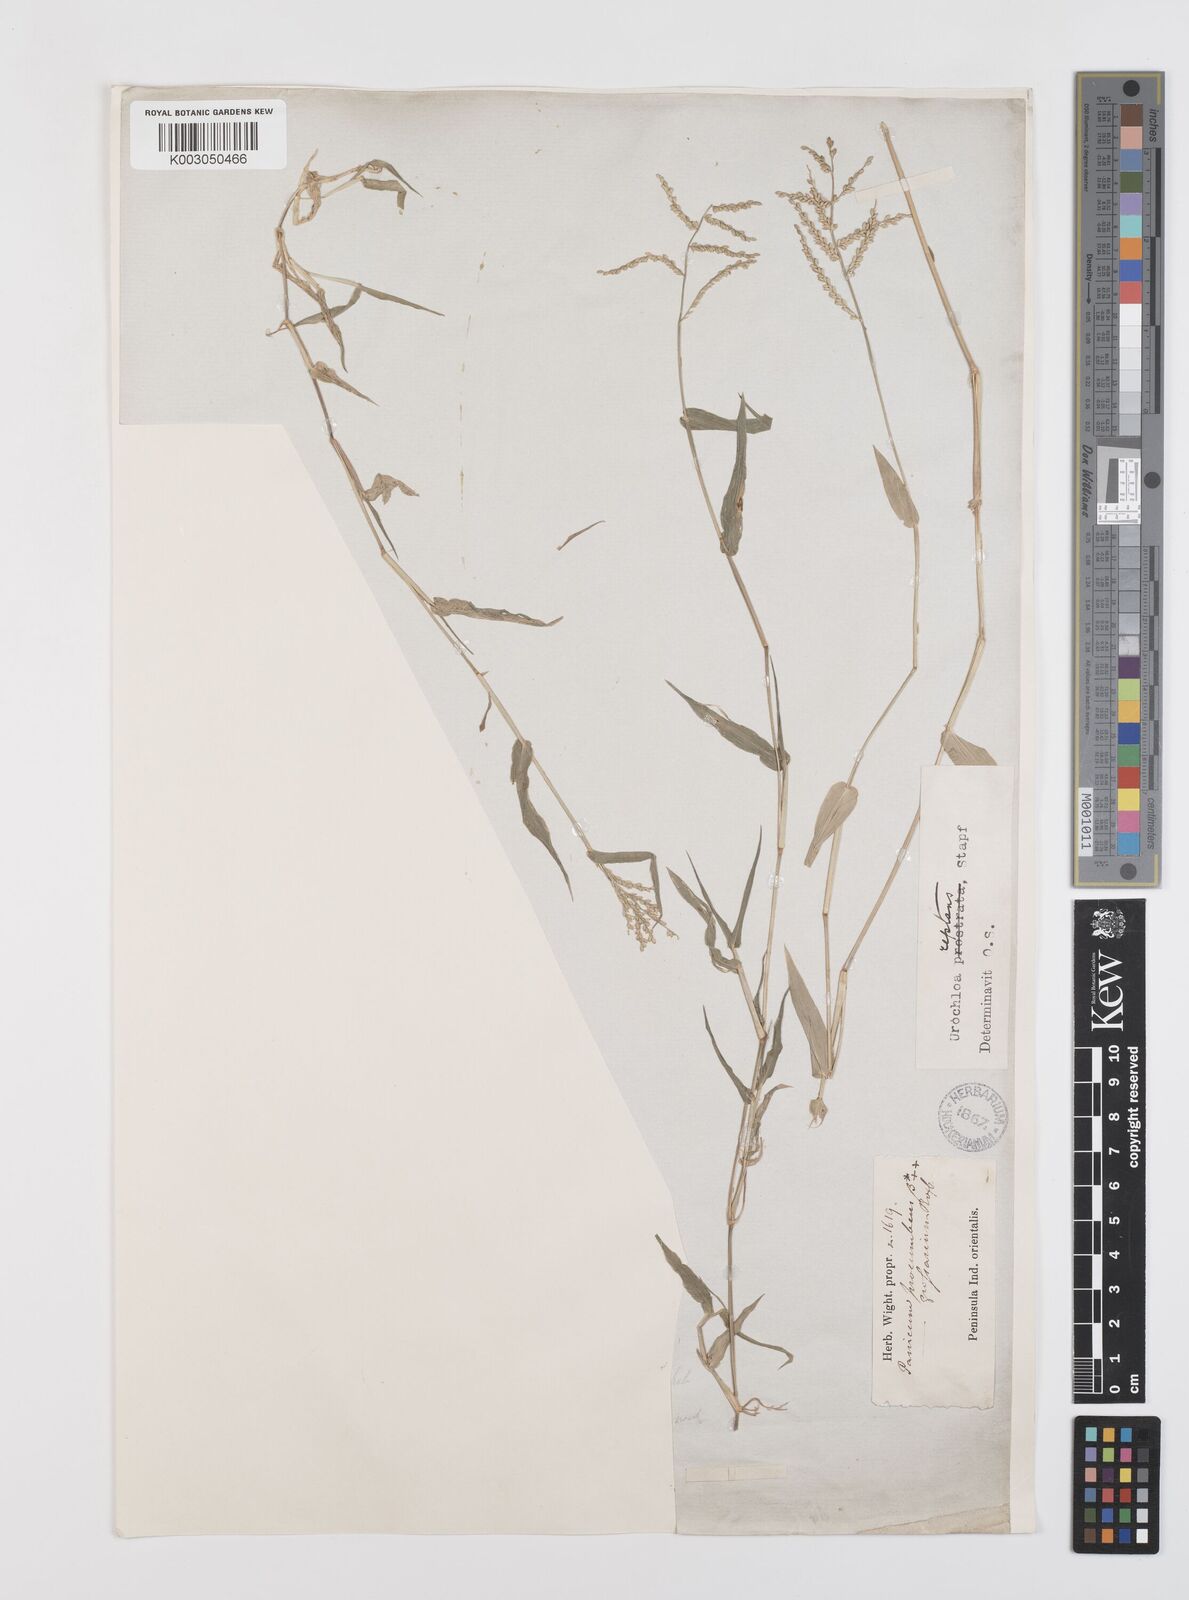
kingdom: Plantae
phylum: Tracheophyta
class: Liliopsida
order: Poales
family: Poaceae
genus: Urochloa
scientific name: Urochloa reptans
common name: Sprawling signalgrass
